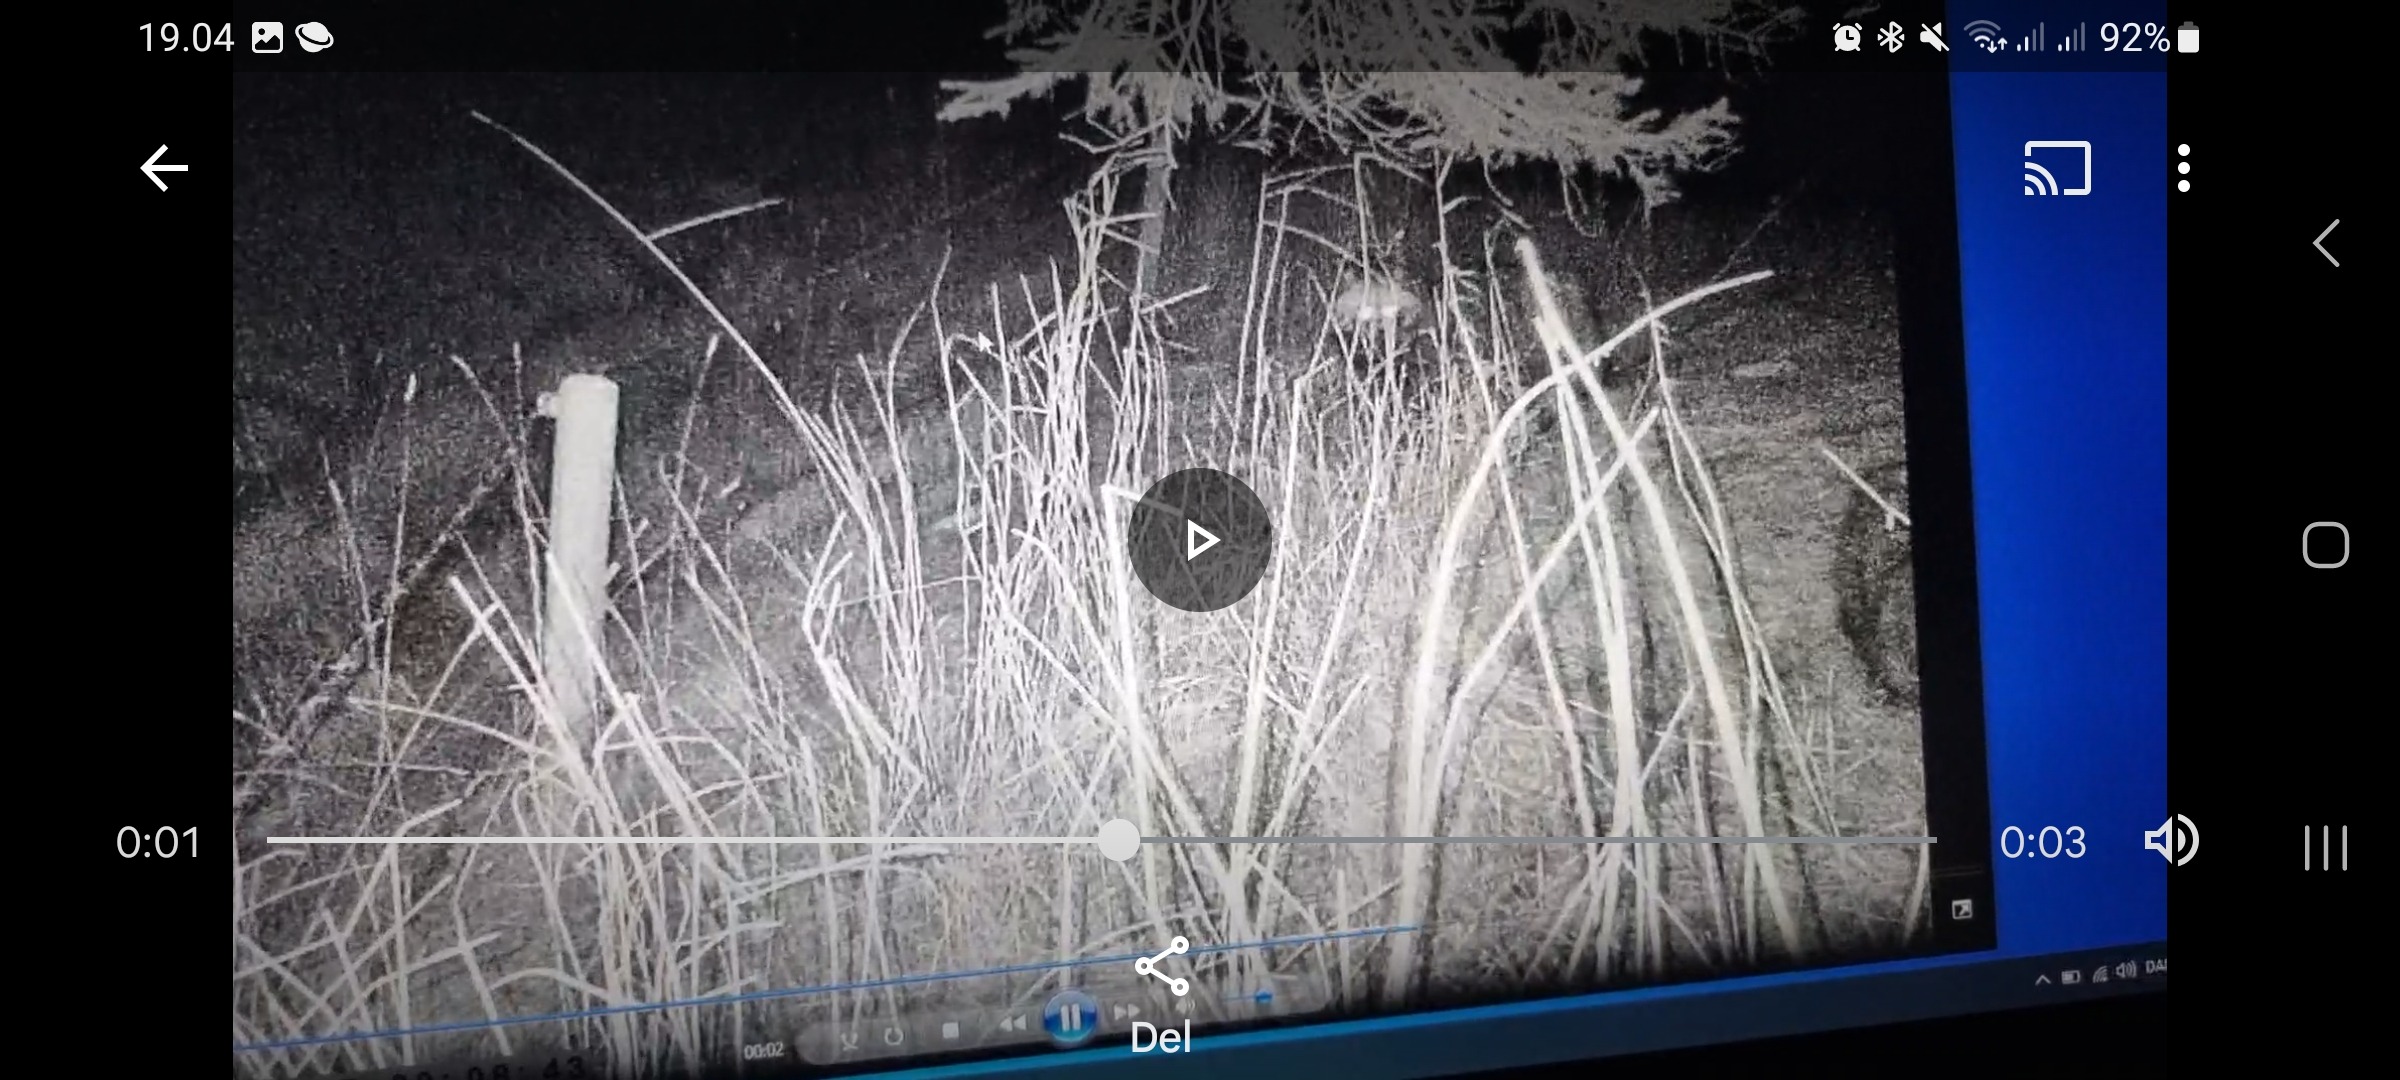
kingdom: Animalia
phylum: Chordata
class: Mammalia
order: Carnivora
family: Canidae
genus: Nyctereutes
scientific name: Nyctereutes procyonoides
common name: Mårhund
